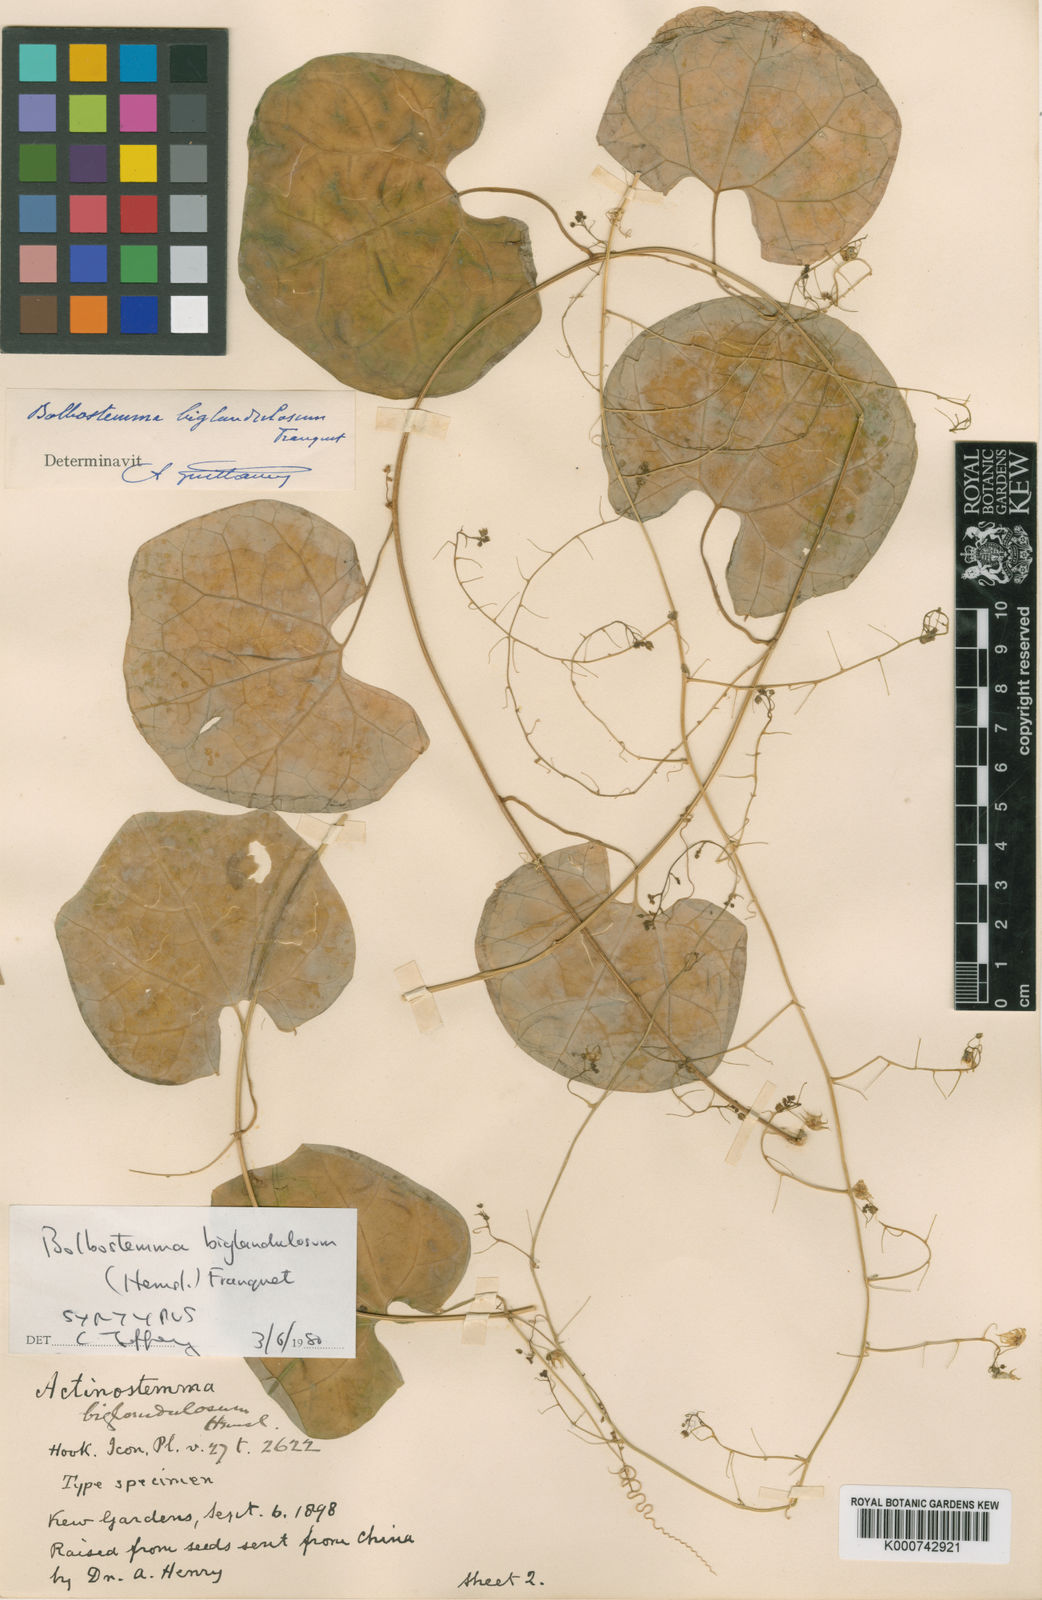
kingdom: Plantae
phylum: Tracheophyta
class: Magnoliopsida
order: Cucurbitales
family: Cucurbitaceae
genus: Actinostemma
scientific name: Actinostemma biglandulosum
